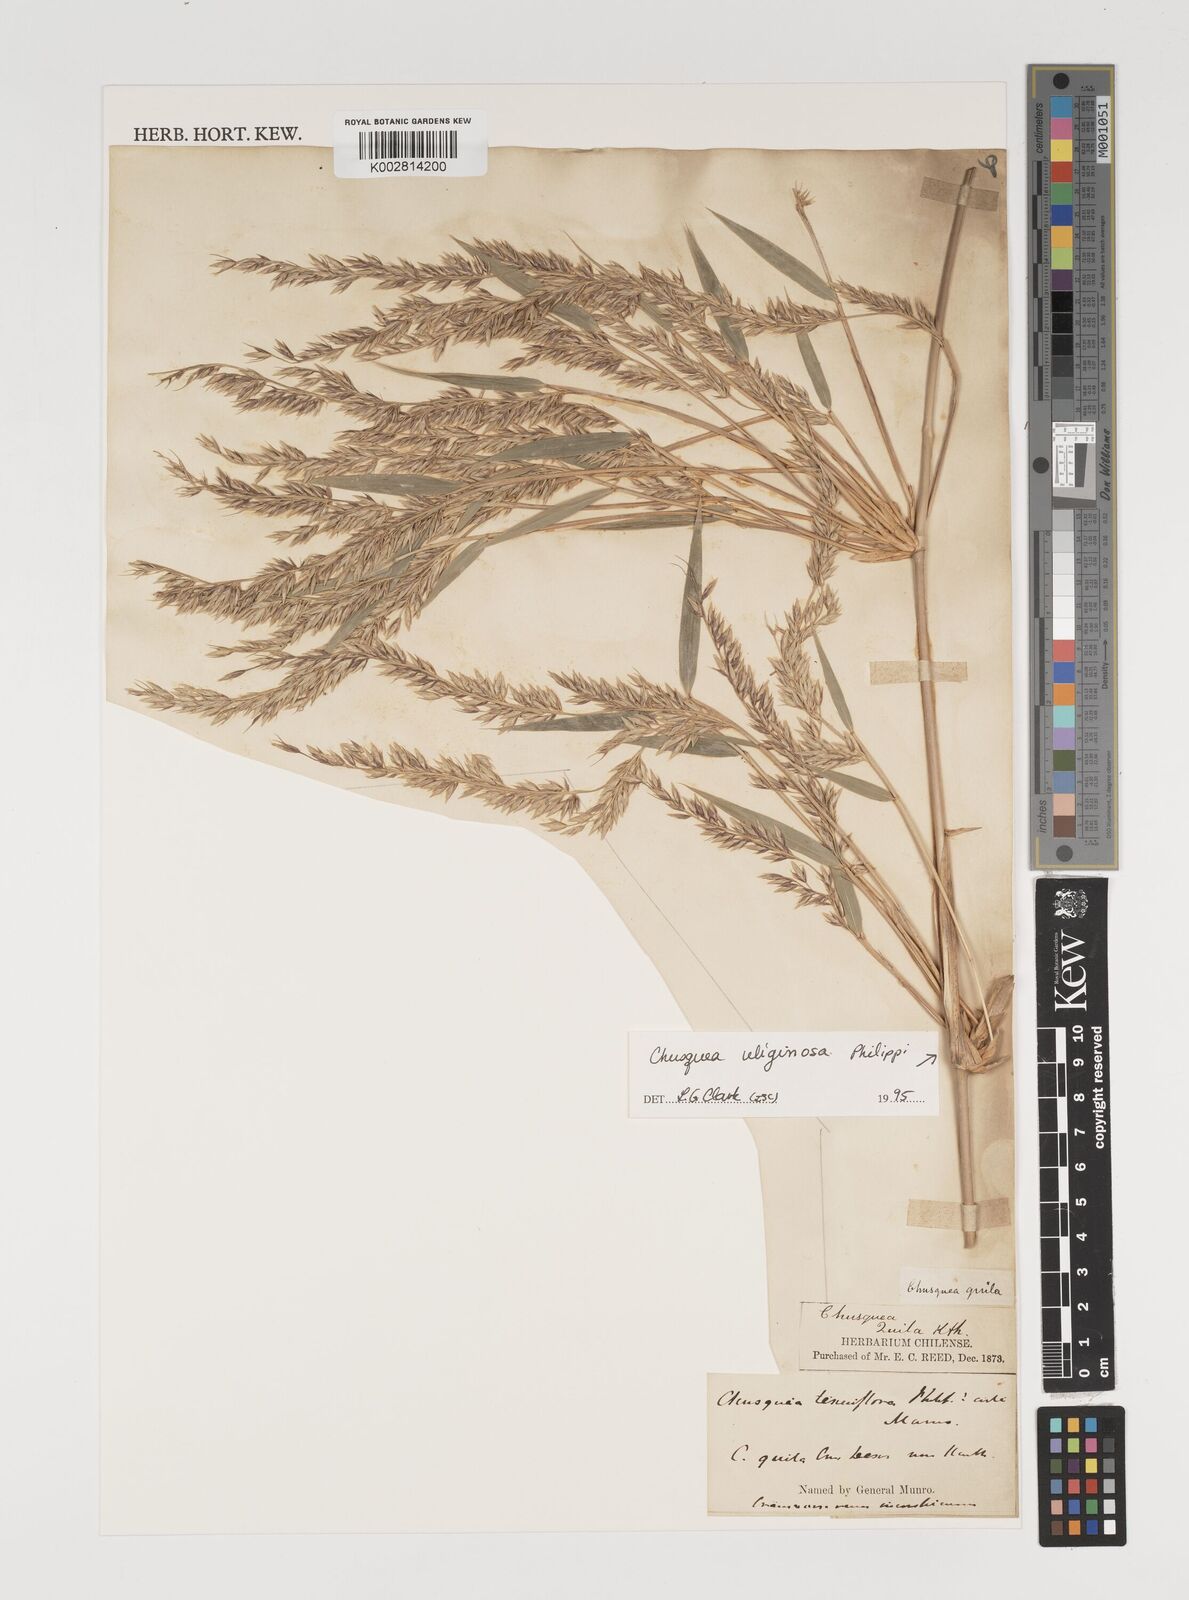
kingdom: Plantae
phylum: Tracheophyta
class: Liliopsida
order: Poales
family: Poaceae
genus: Chusquea
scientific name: Chusquea uliginosa
